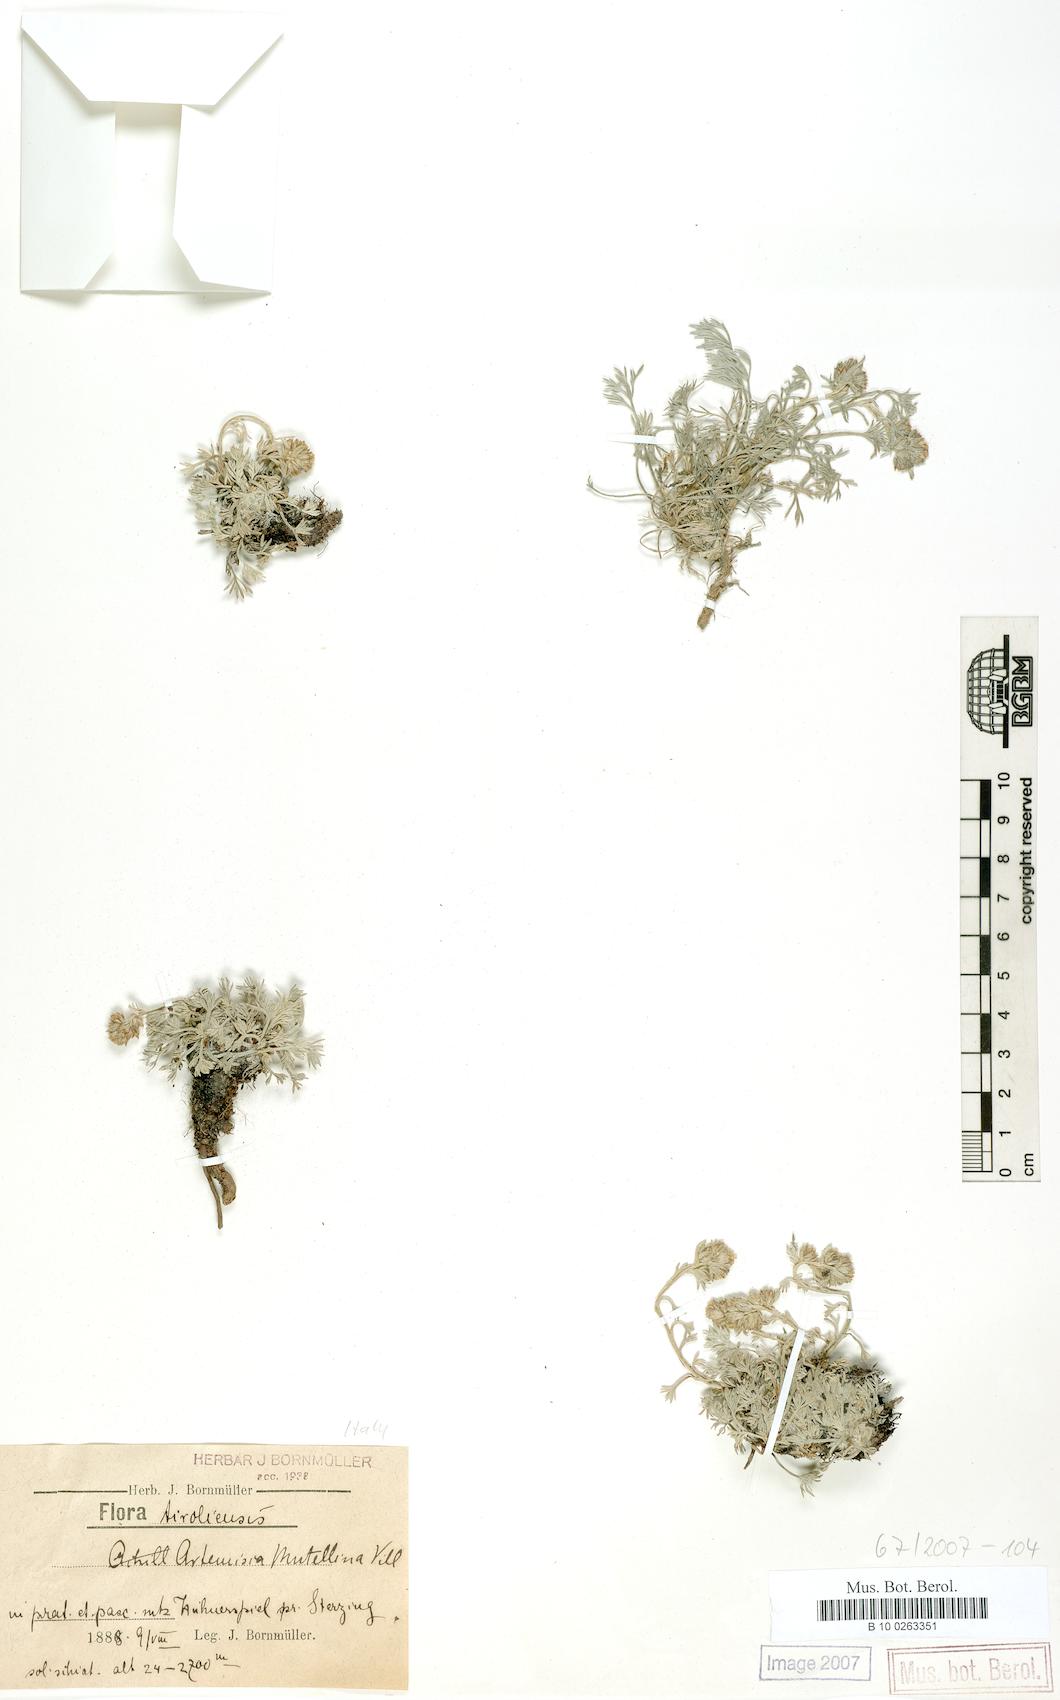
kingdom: Plantae
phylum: Tracheophyta
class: Magnoliopsida
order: Asterales
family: Asteraceae
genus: Artemisia
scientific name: Artemisia mutellina
